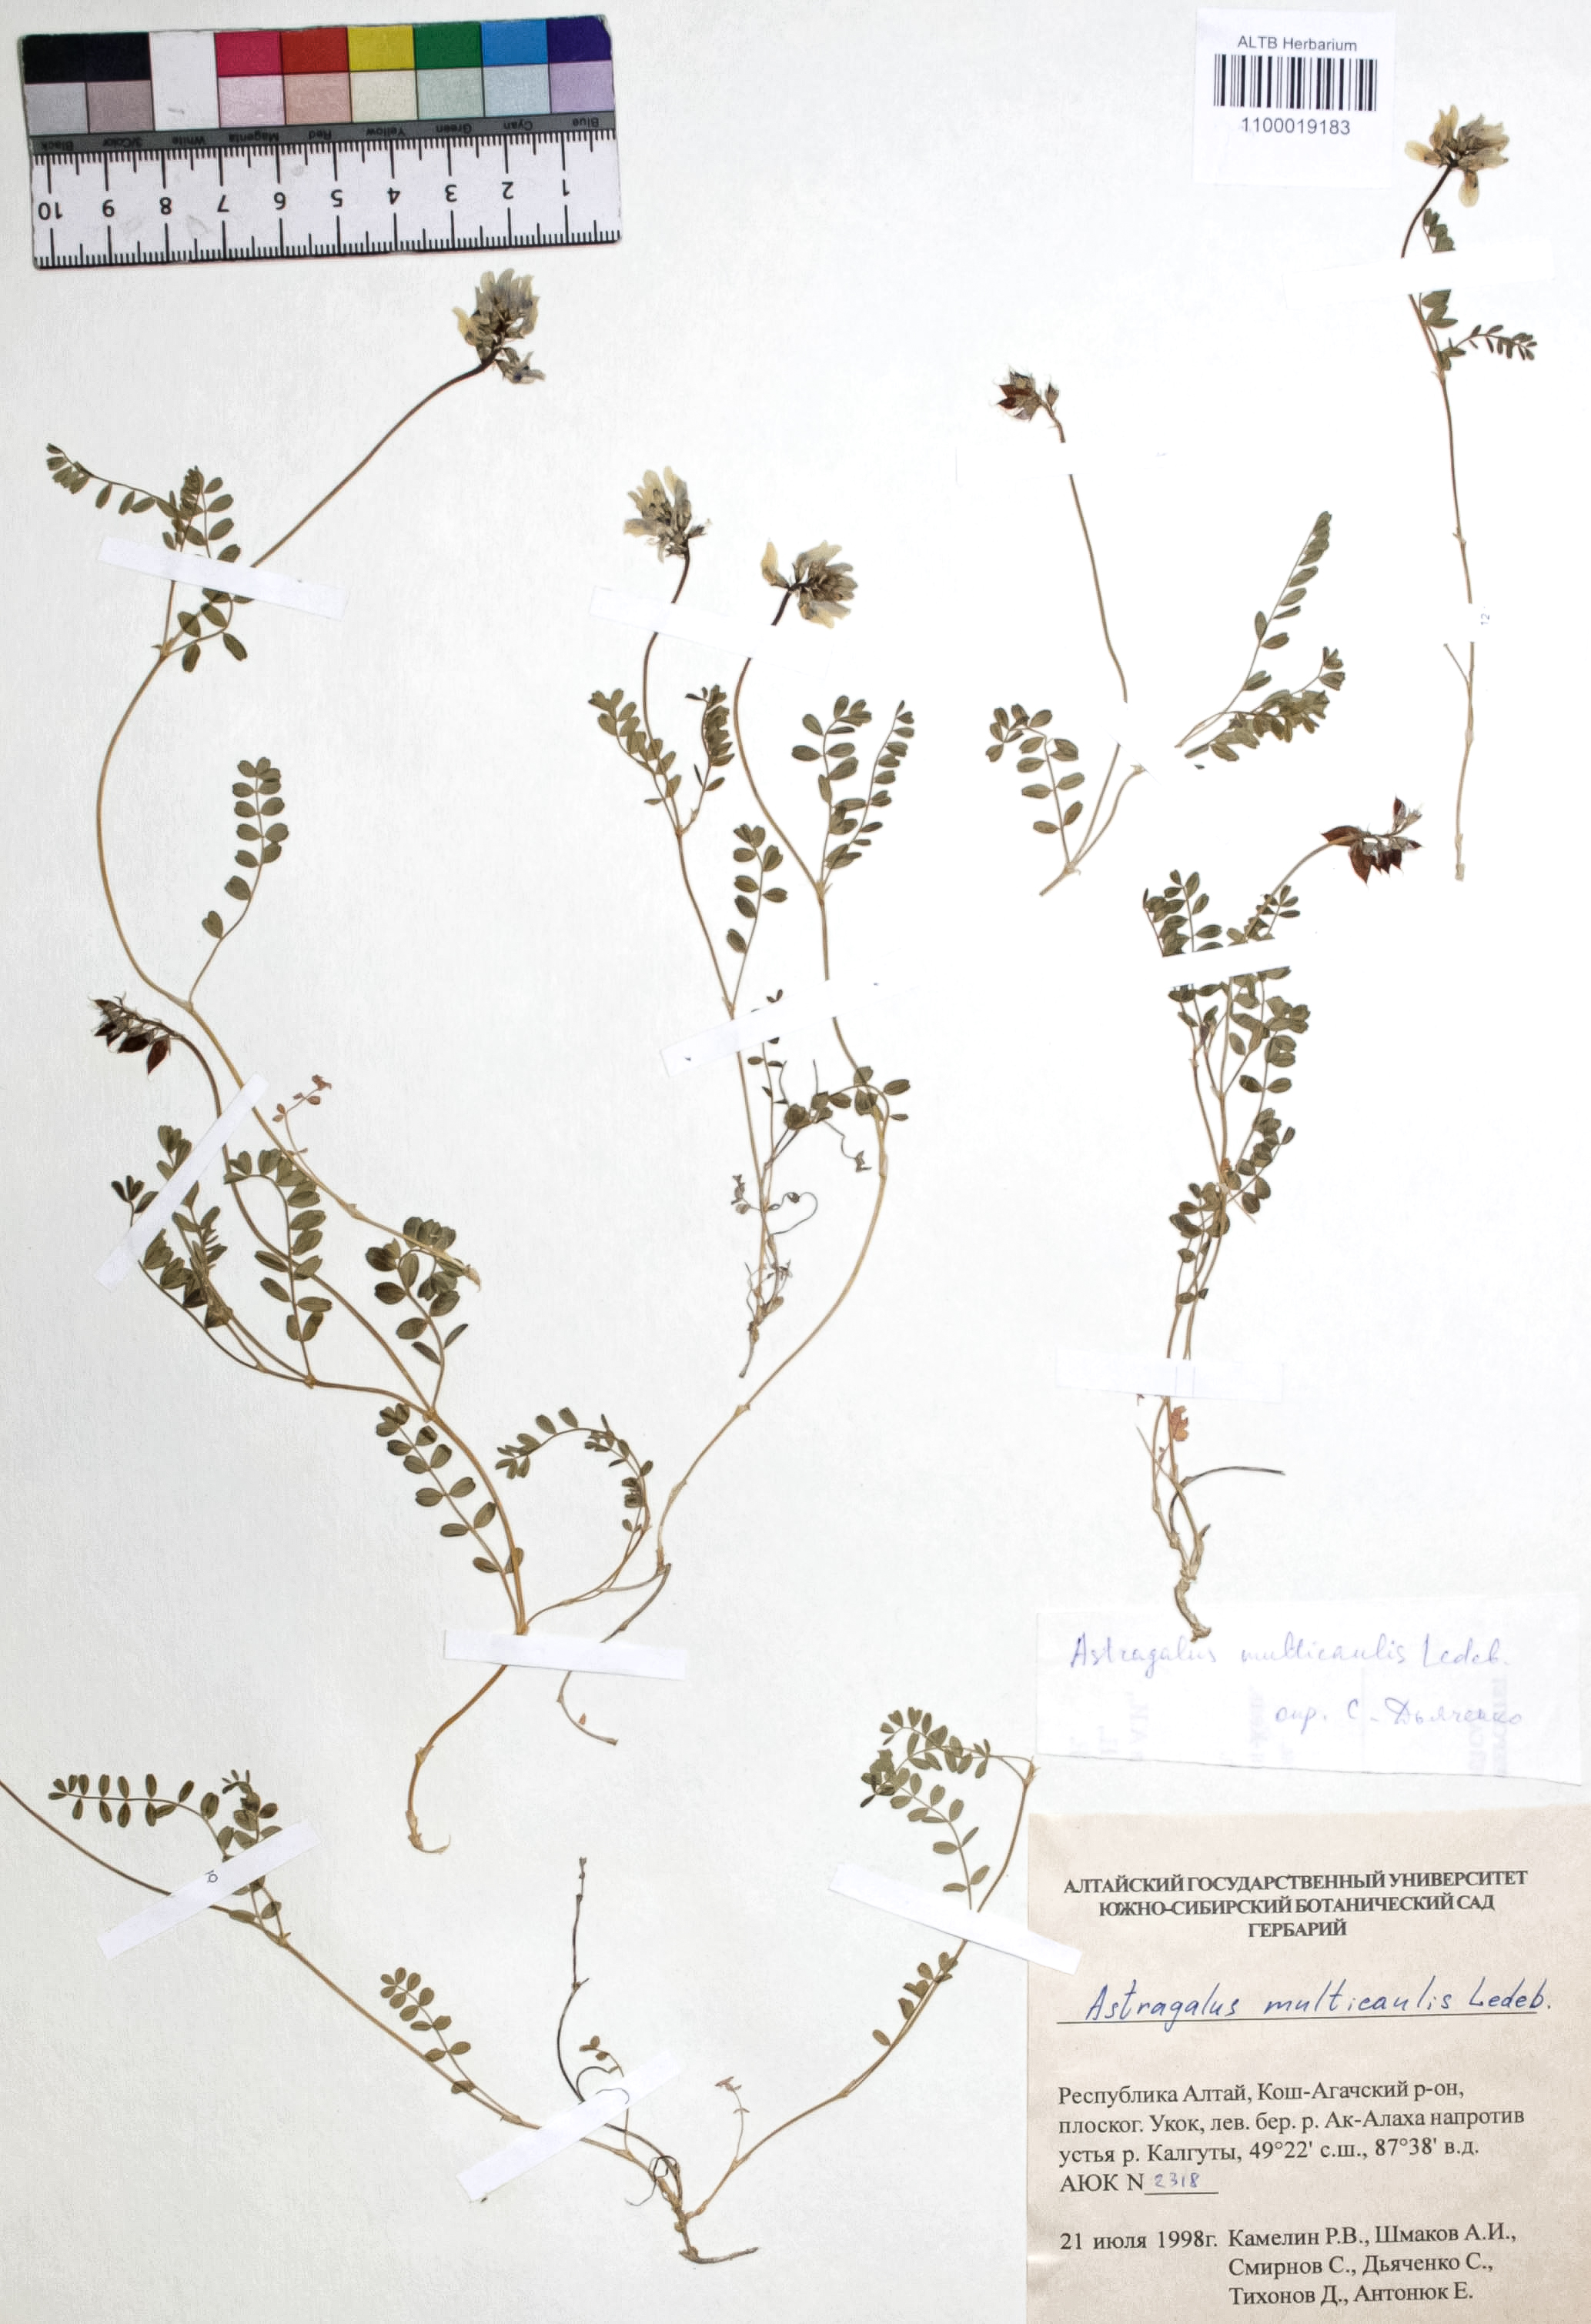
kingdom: Plantae
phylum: Tracheophyta
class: Magnoliopsida
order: Fabales
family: Fabaceae
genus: Astragalus
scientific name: Astragalus leptostachys
